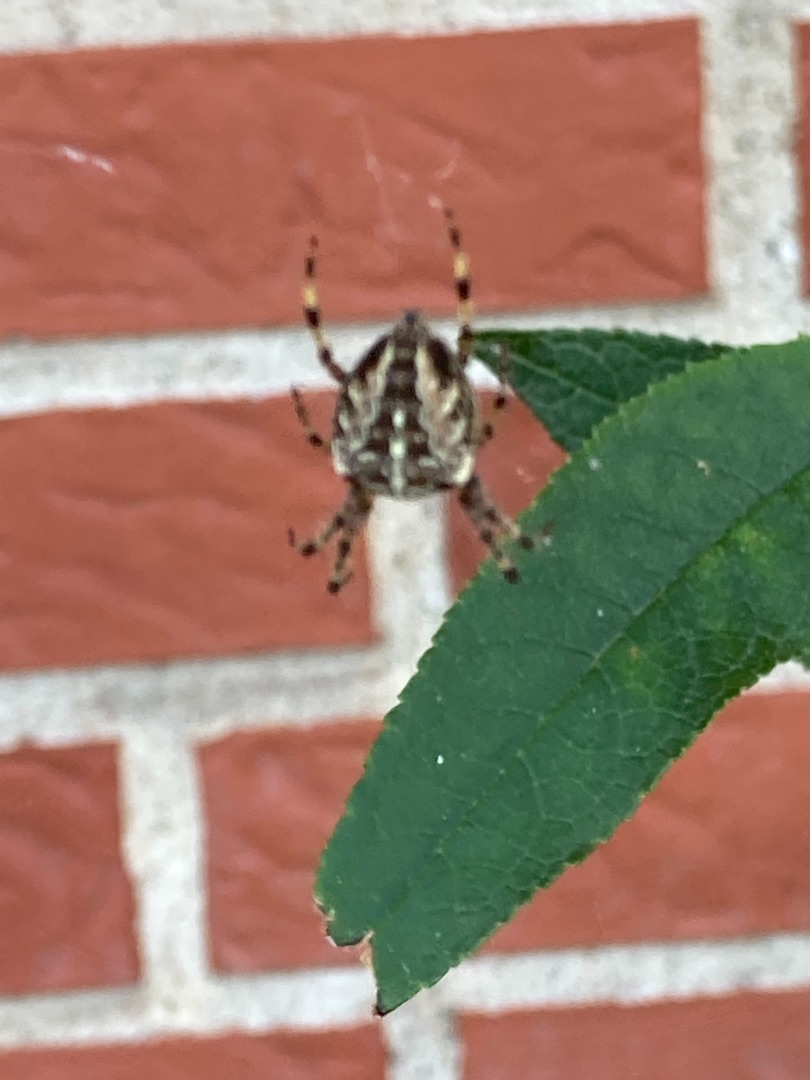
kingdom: Animalia
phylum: Arthropoda
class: Arachnida
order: Araneae
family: Araneidae
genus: Araneus
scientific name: Araneus diadematus
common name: Korsedderkop
